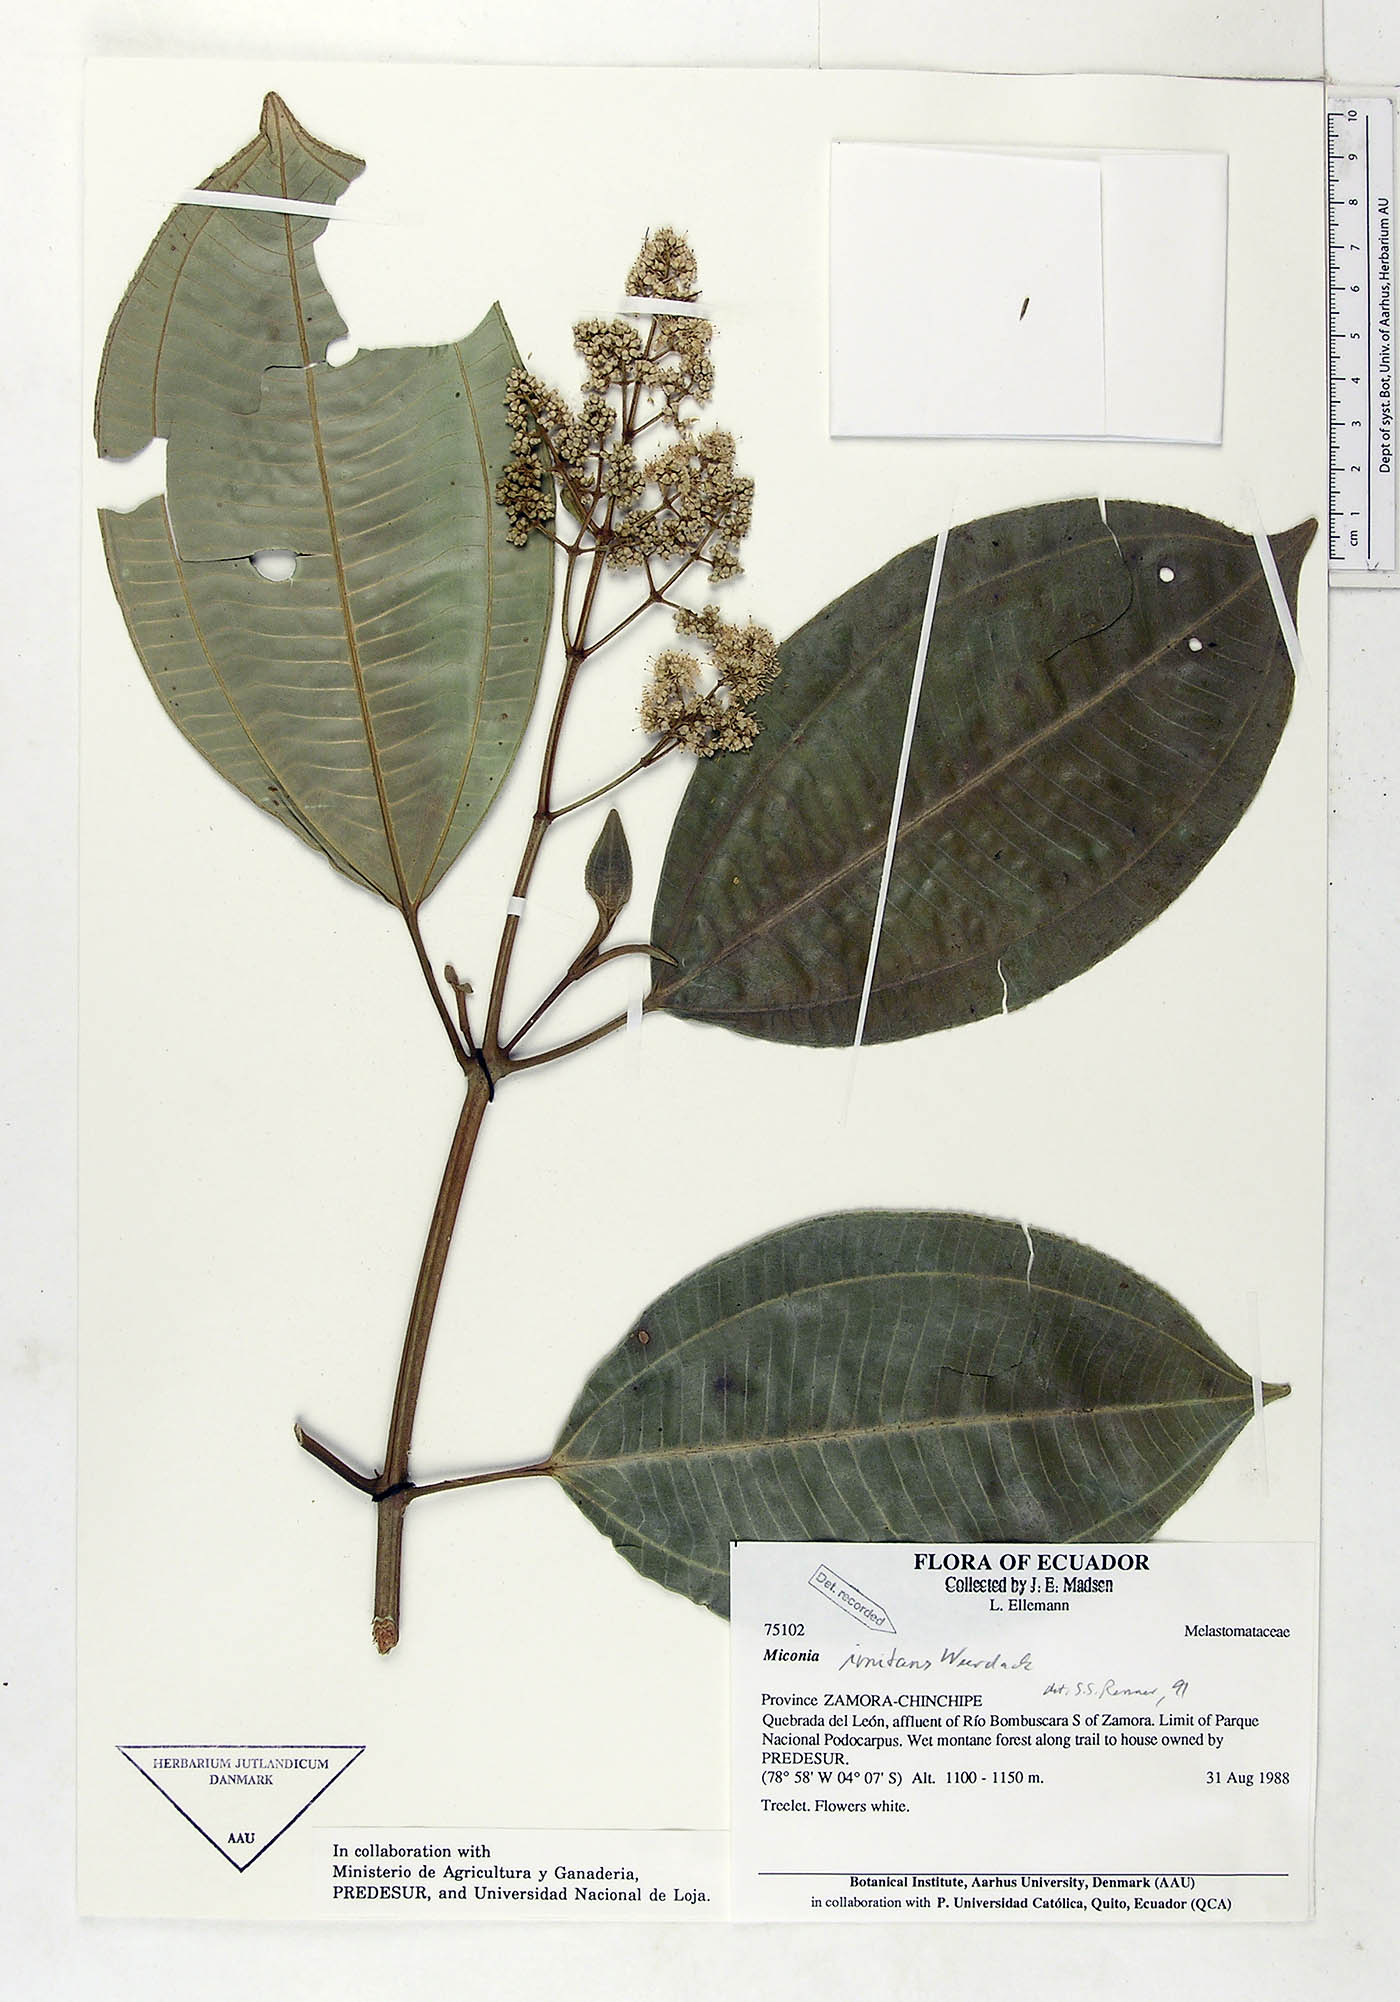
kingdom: Plantae
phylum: Tracheophyta
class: Magnoliopsida
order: Myrtales
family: Melastomataceae
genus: Miconia
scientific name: Miconia imitans
